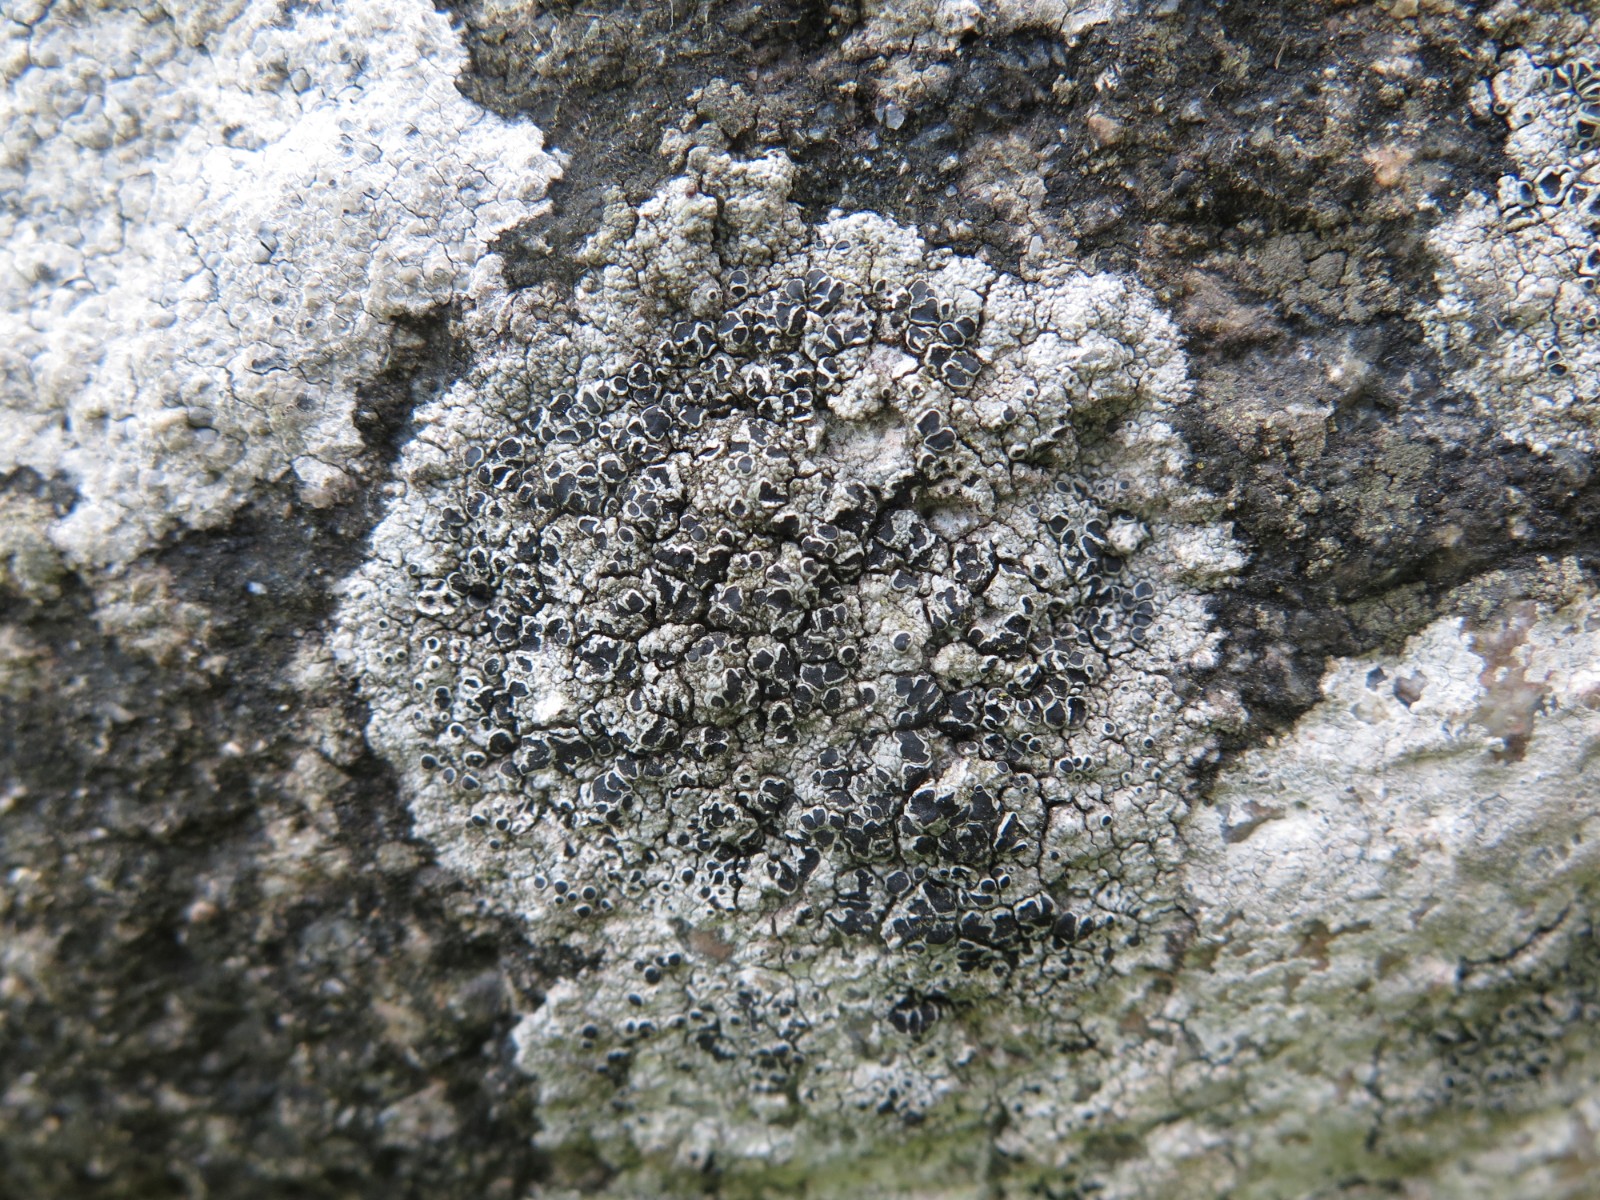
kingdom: Fungi
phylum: Ascomycota
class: Lecanoromycetes
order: Lecanorales
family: Tephromelataceae
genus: Tephromela
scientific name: Tephromela atra
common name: sortfrugtet kantskivelav
